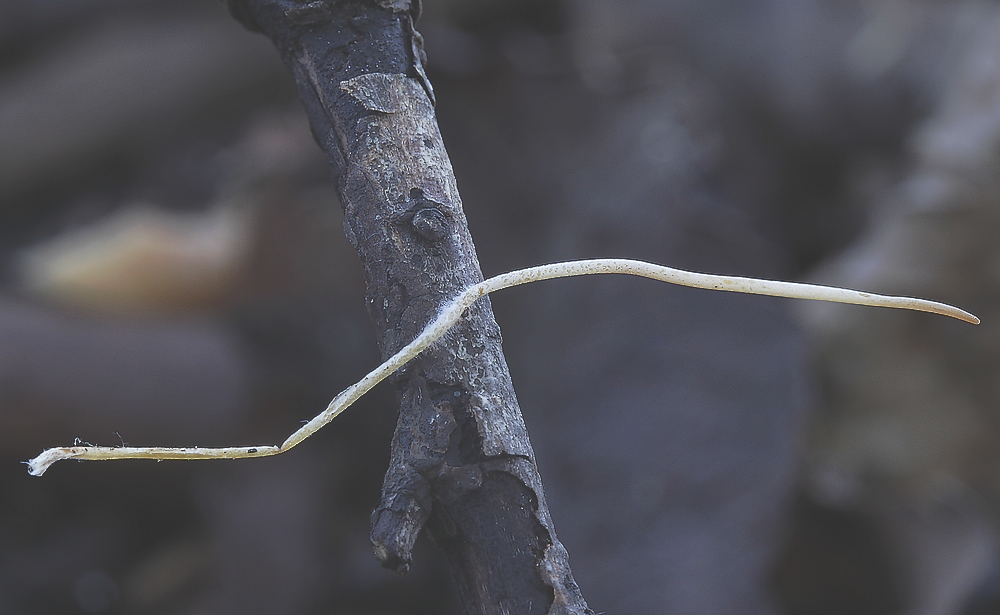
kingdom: Fungi
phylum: Basidiomycota
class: Agaricomycetes
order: Agaricales
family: Typhulaceae
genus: Macrotyphula
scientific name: Macrotyphula
